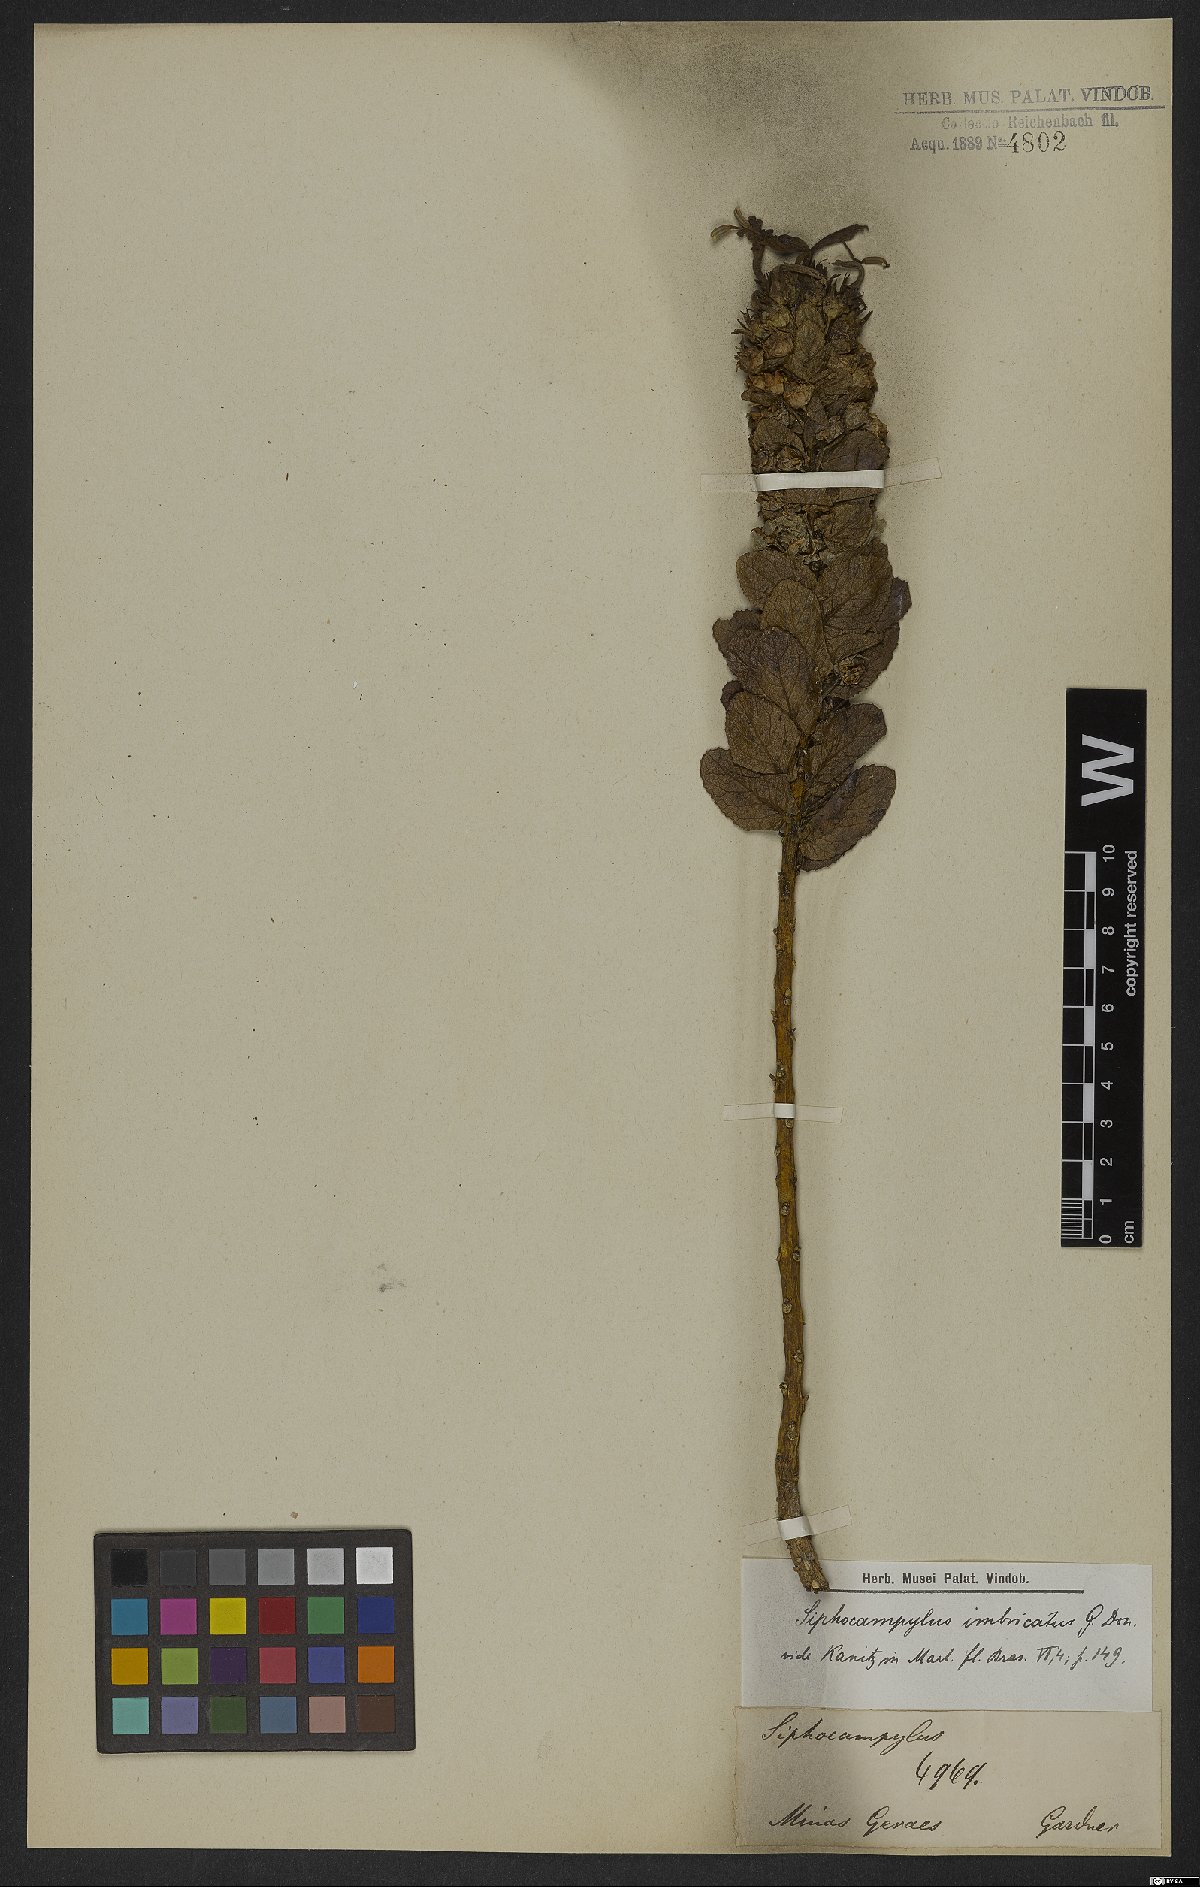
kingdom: Plantae
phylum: Tracheophyta
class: Magnoliopsida
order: Asterales
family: Campanulaceae
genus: Siphocampylus
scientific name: Siphocampylus imbricatus
